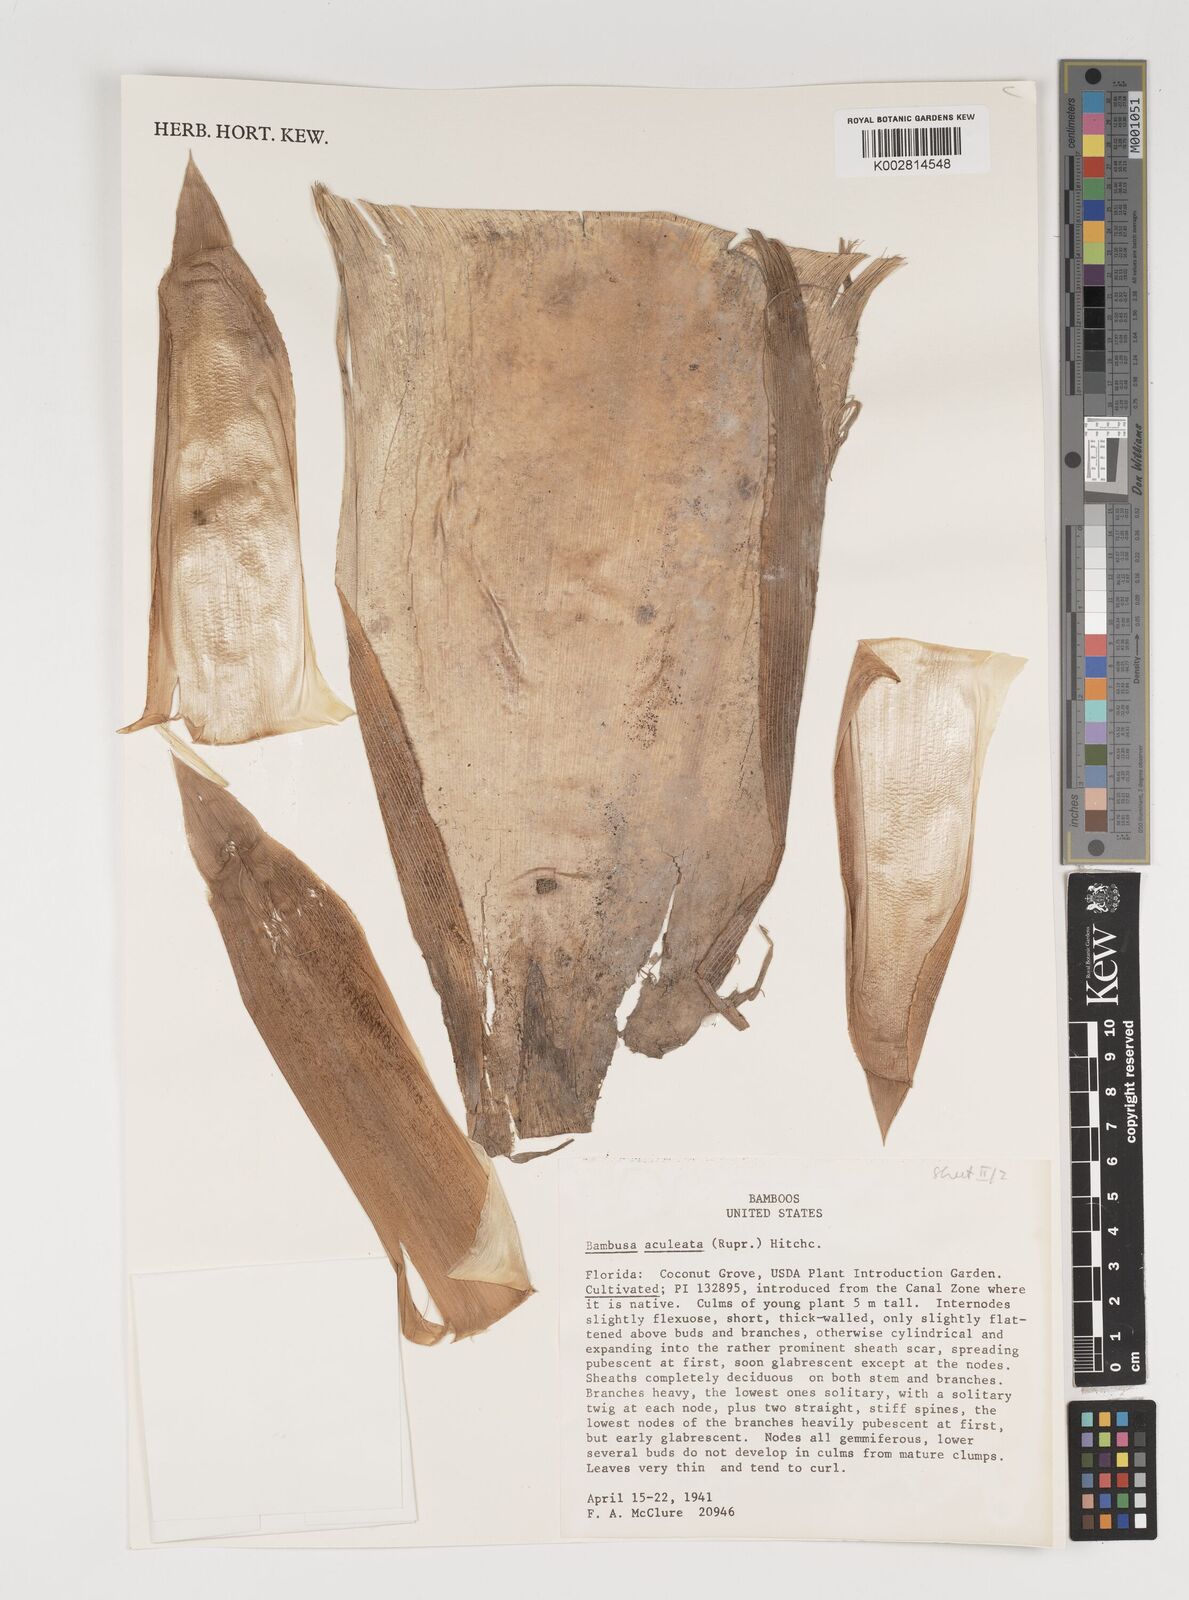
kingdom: Plantae
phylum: Tracheophyta
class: Liliopsida
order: Poales
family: Poaceae
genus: Guadua
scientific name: Guadua angustifolia
